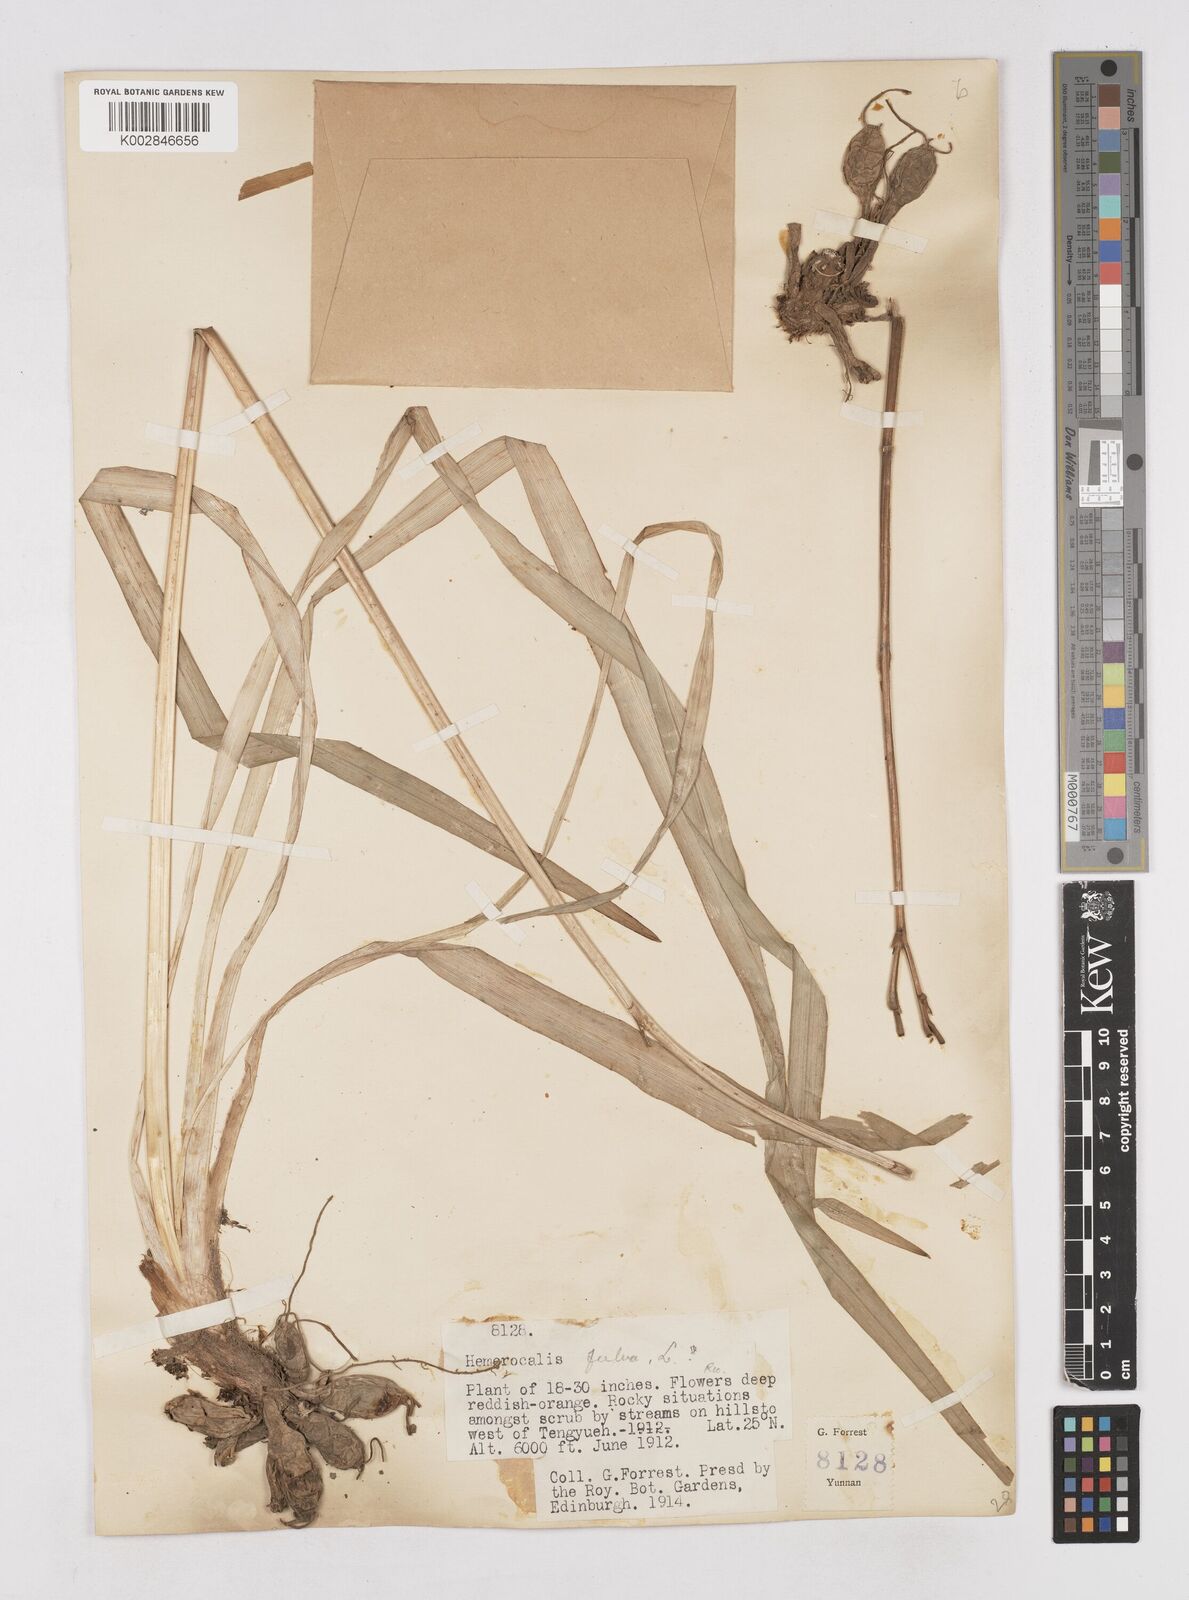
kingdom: Plantae
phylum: Tracheophyta
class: Liliopsida
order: Asparagales
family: Asphodelaceae
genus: Hemerocallis
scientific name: Hemerocallis fulva
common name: Orange day-lily
